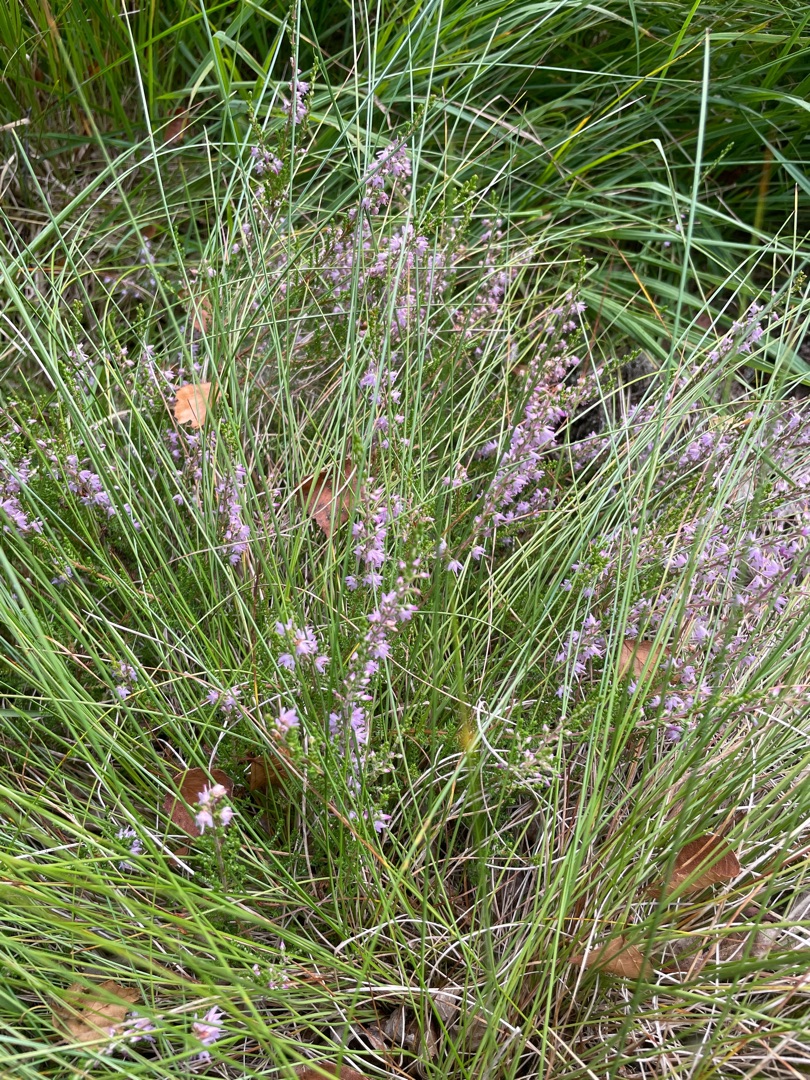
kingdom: Plantae
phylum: Tracheophyta
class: Magnoliopsida
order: Ericales
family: Ericaceae
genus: Calluna
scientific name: Calluna vulgaris
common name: Hedelyng
